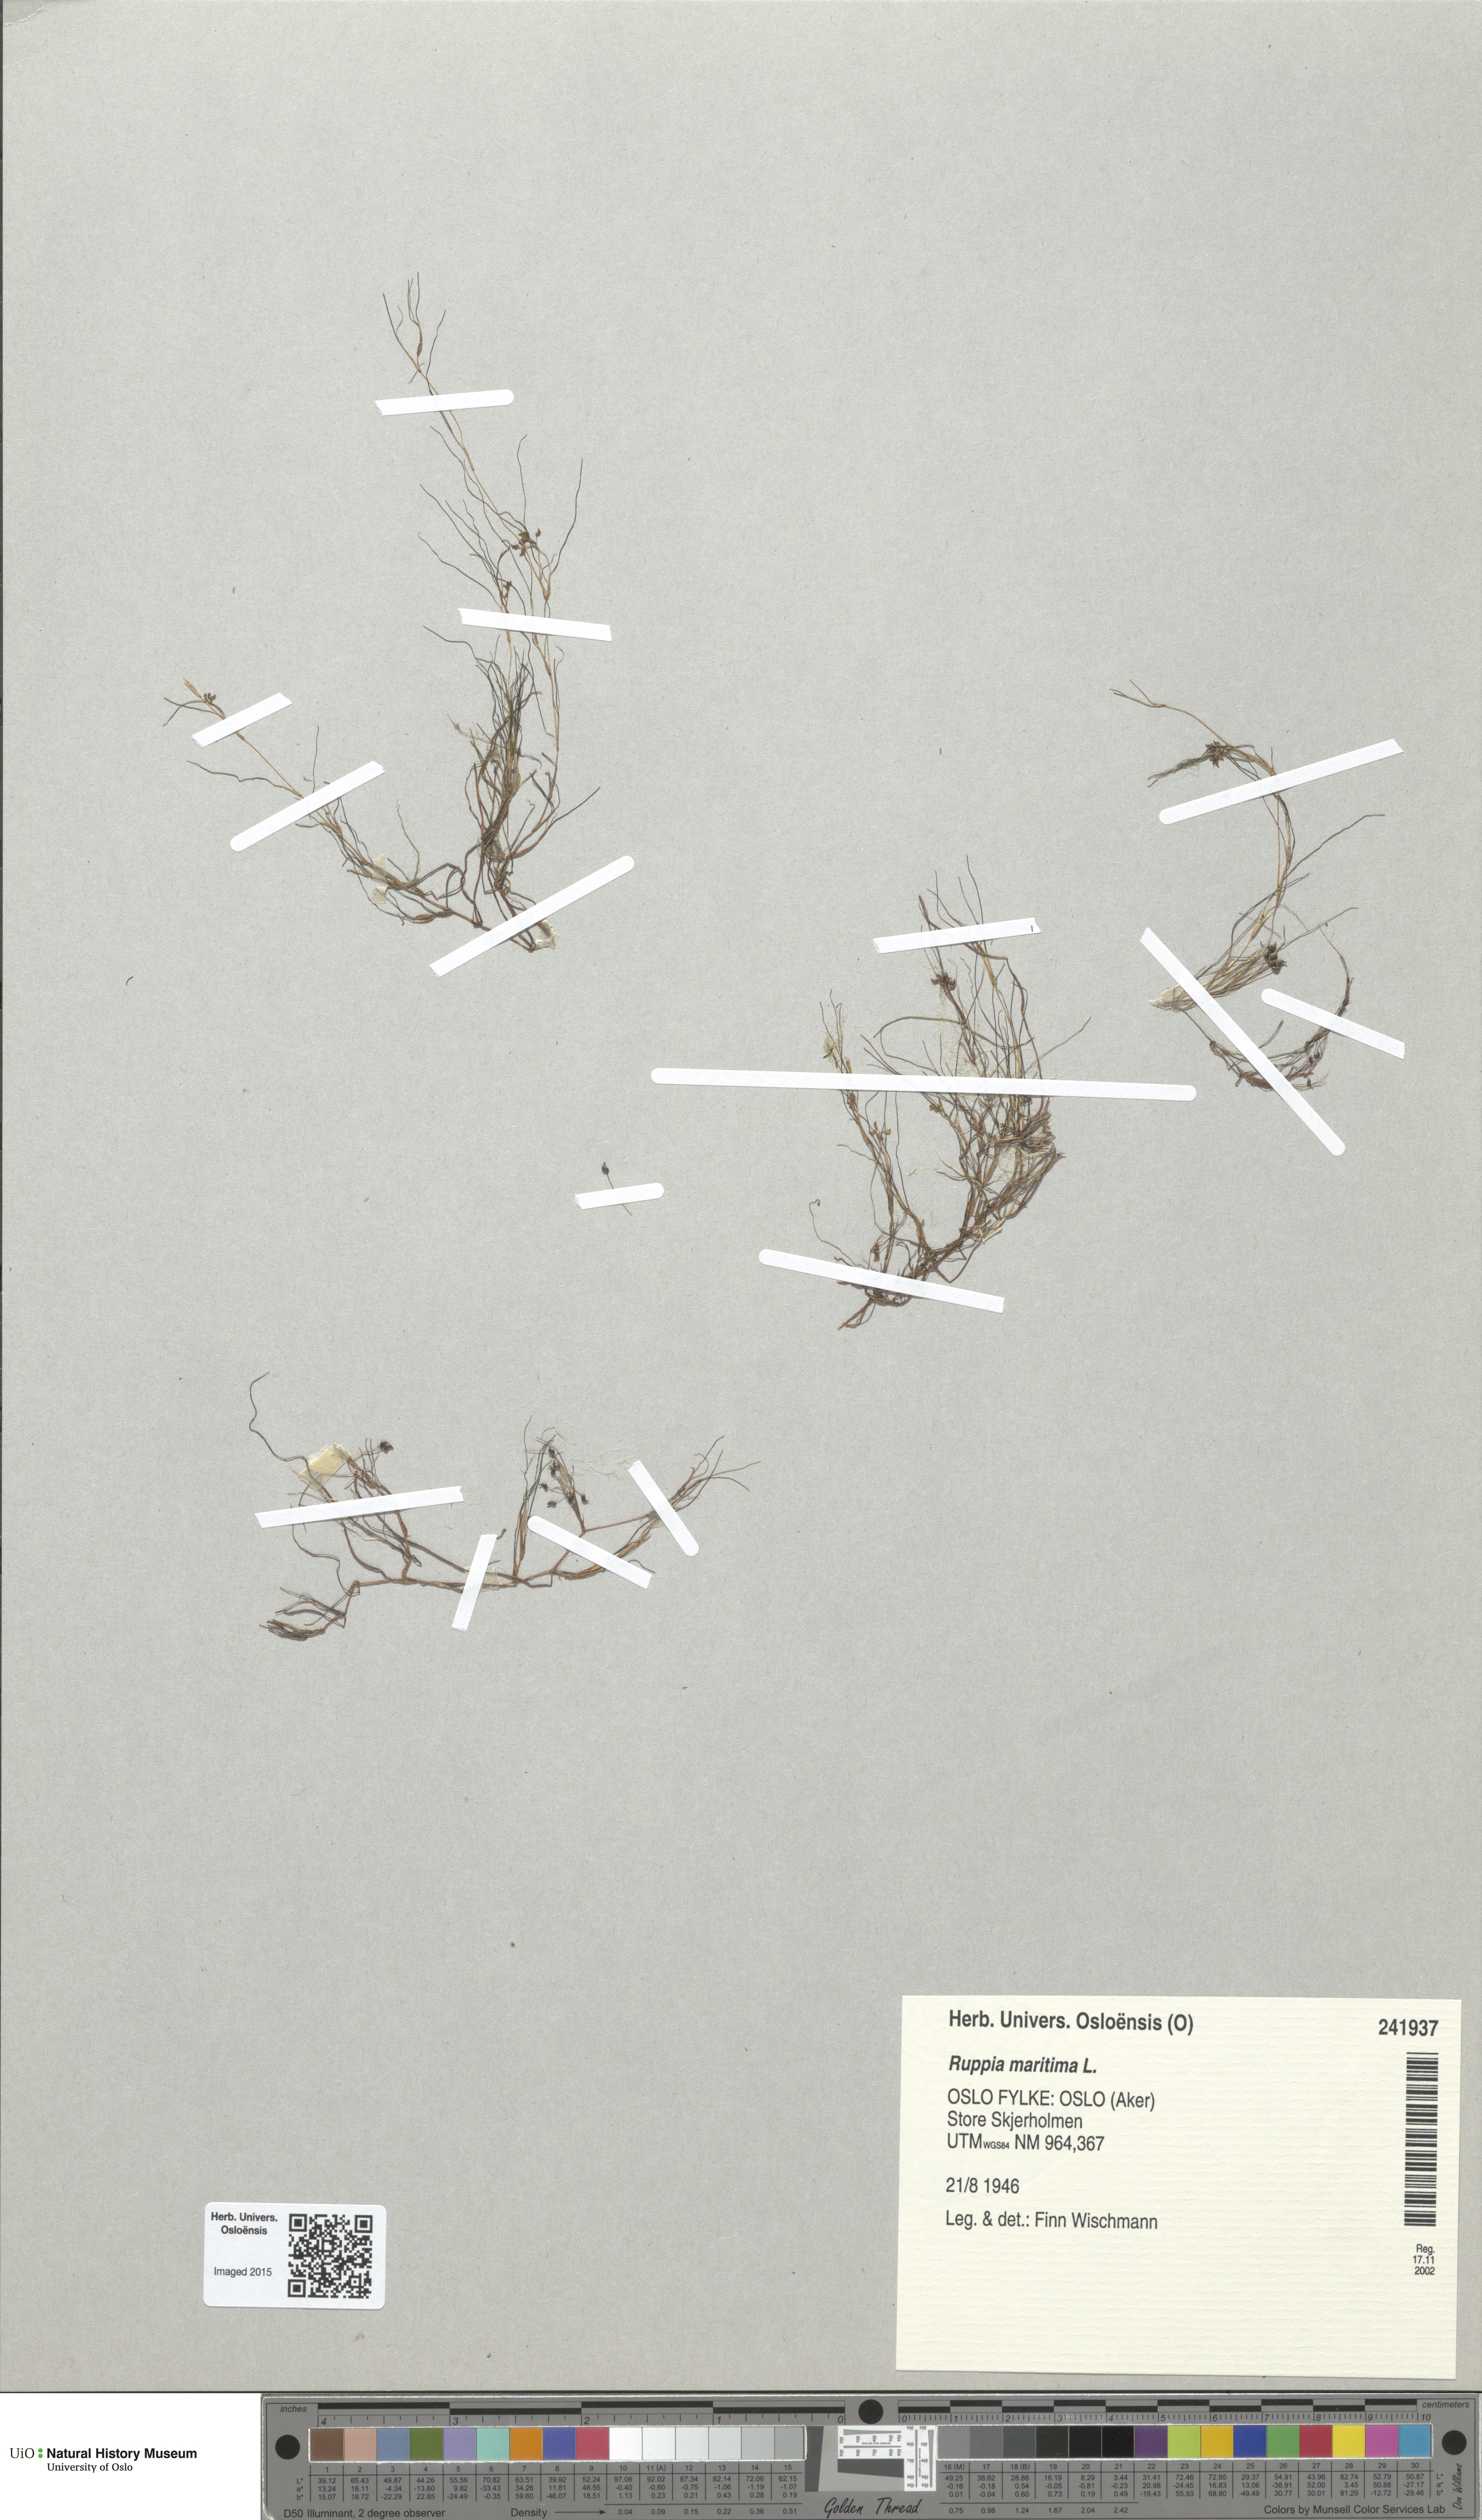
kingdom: Plantae
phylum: Tracheophyta
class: Liliopsida
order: Alismatales
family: Ruppiaceae
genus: Ruppia
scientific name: Ruppia maritima
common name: Beaked tasselweed
